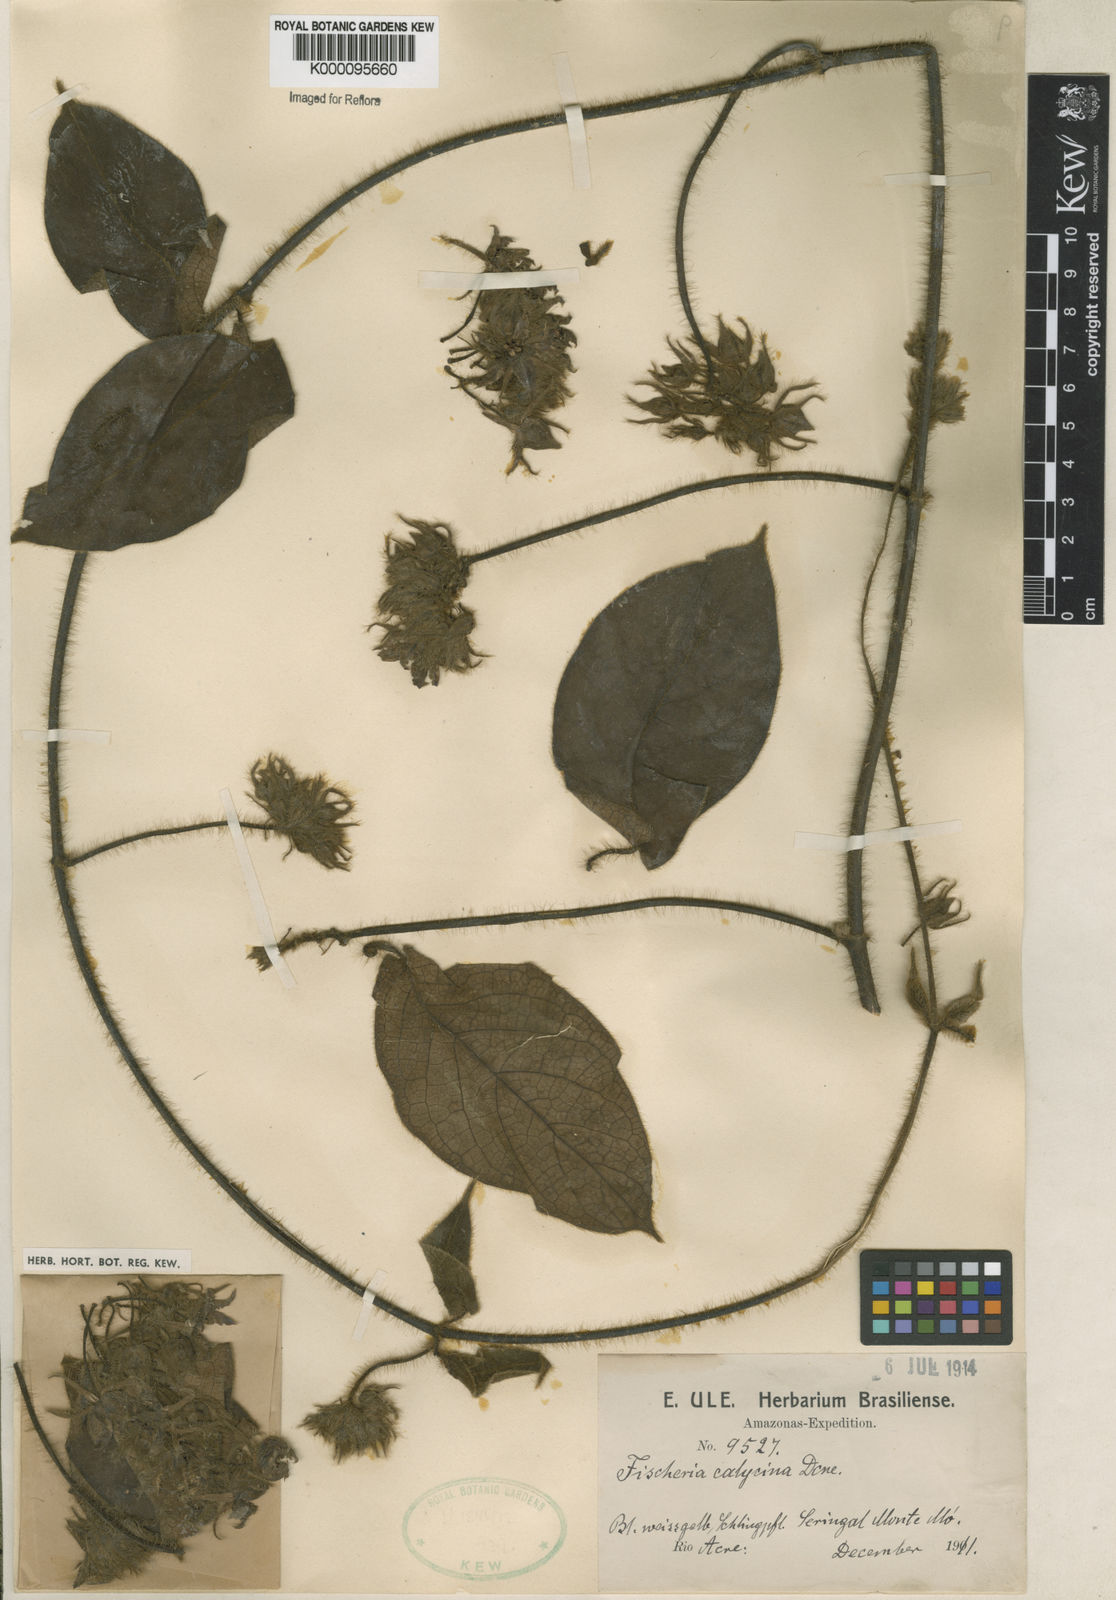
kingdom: Plantae
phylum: Tracheophyta
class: Magnoliopsida
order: Gentianales
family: Apocynaceae
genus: Fischeria
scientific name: Fischeria stellata
